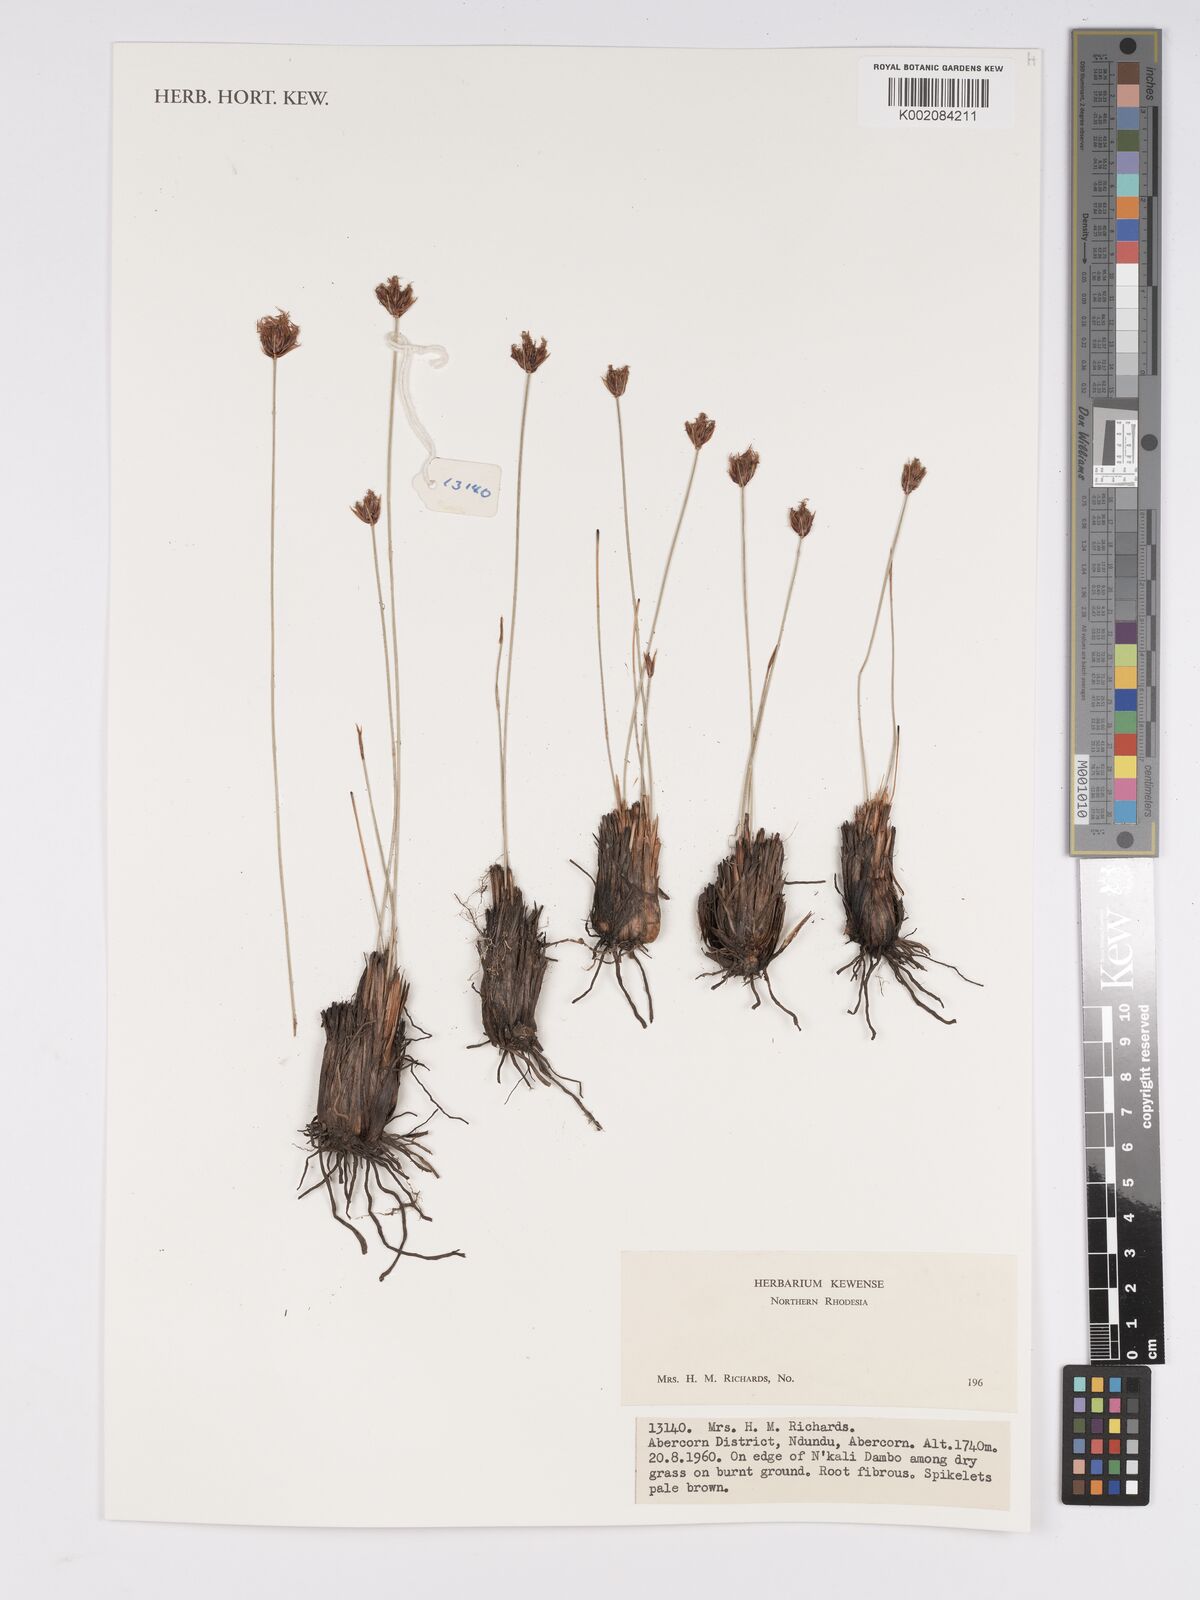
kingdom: Plantae
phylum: Tracheophyta
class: Liliopsida
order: Poales
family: Cyperaceae
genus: Bulbostylis
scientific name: Bulbostylis
